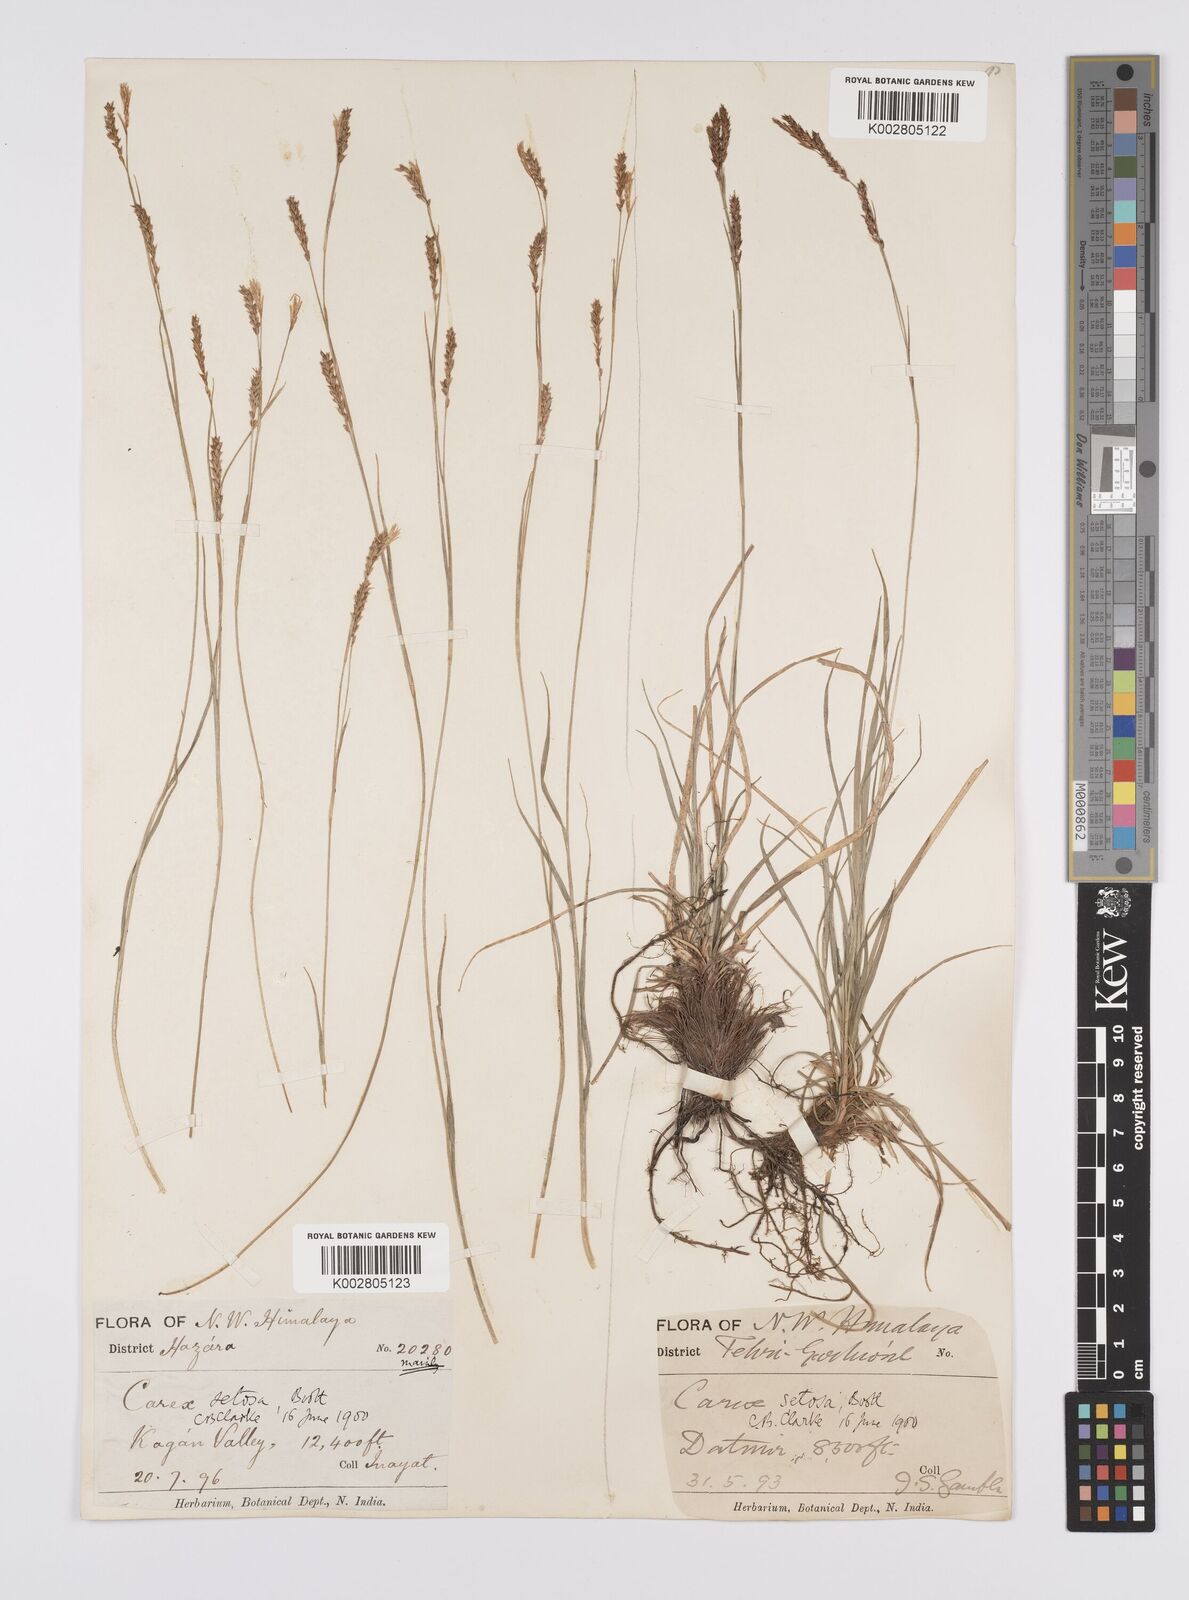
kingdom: Plantae
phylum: Tracheophyta
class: Liliopsida
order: Poales
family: Cyperaceae
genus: Carex
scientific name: Carex setosa
